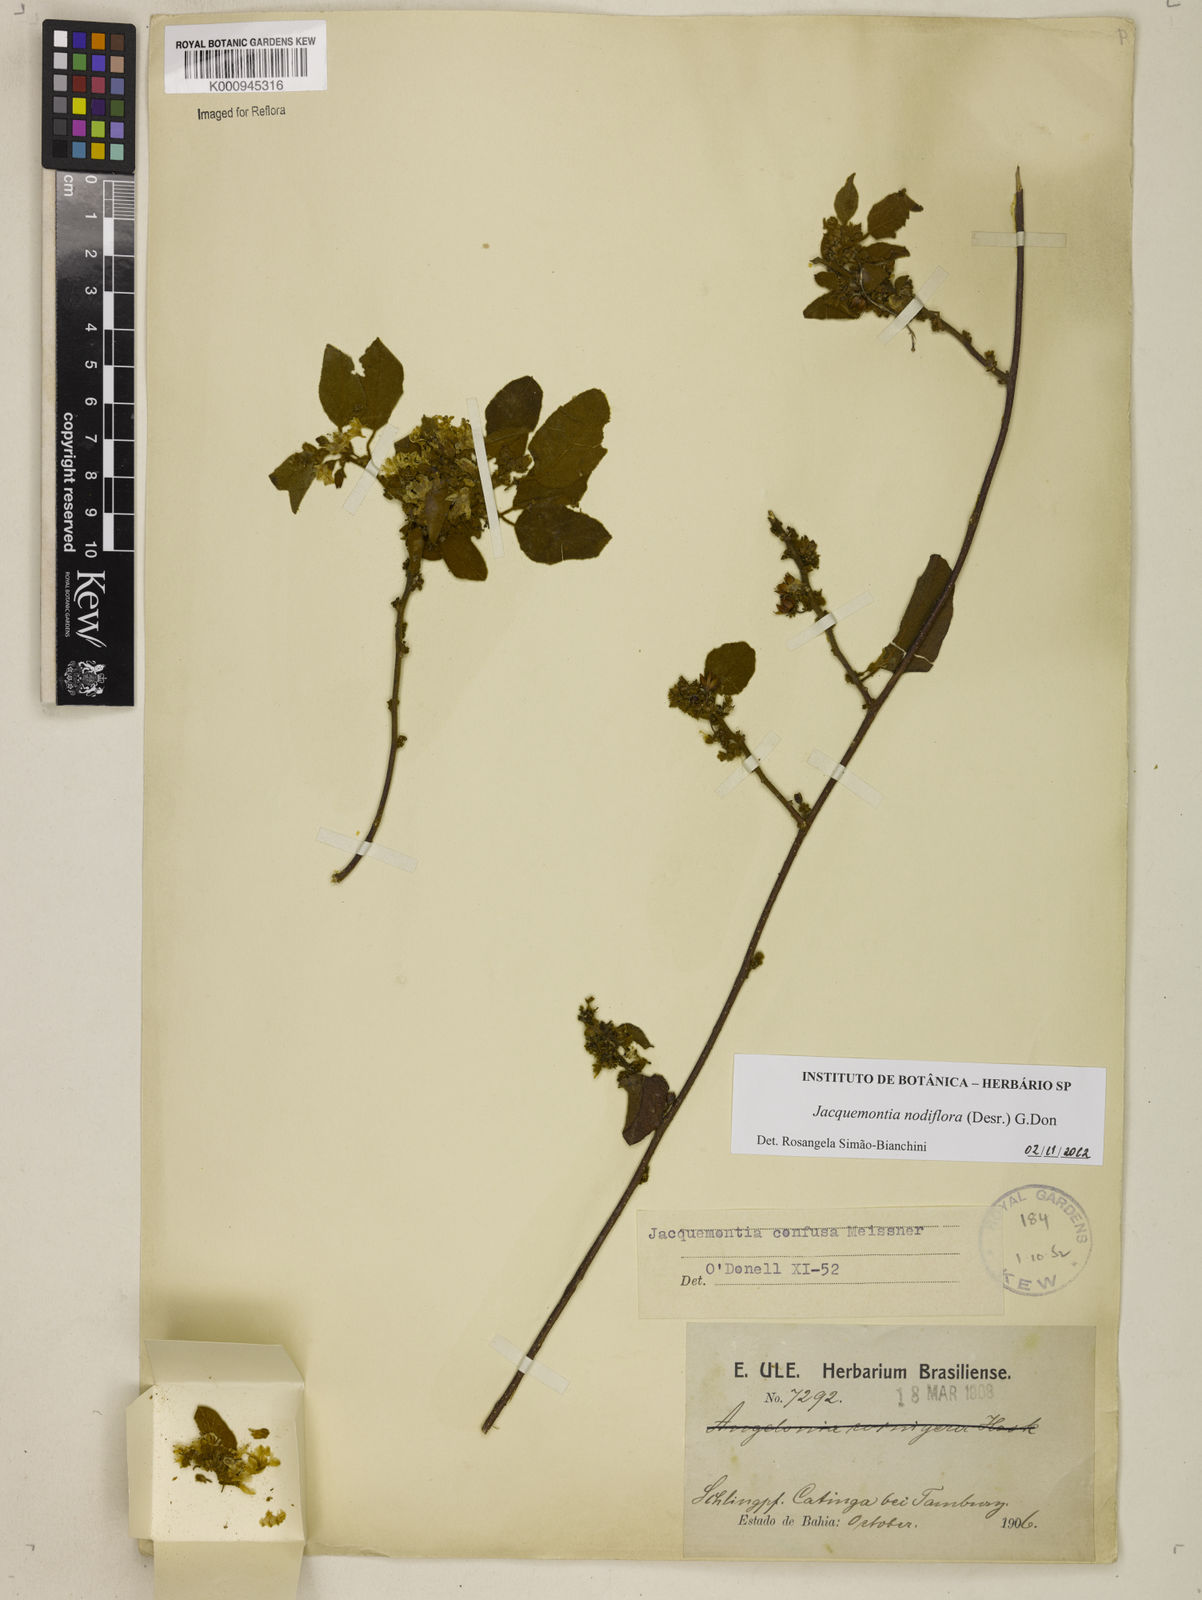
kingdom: Plantae
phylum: Tracheophyta
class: Magnoliopsida
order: Solanales
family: Convolvulaceae
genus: Jacquemontia
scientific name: Jacquemontia nodiflora
